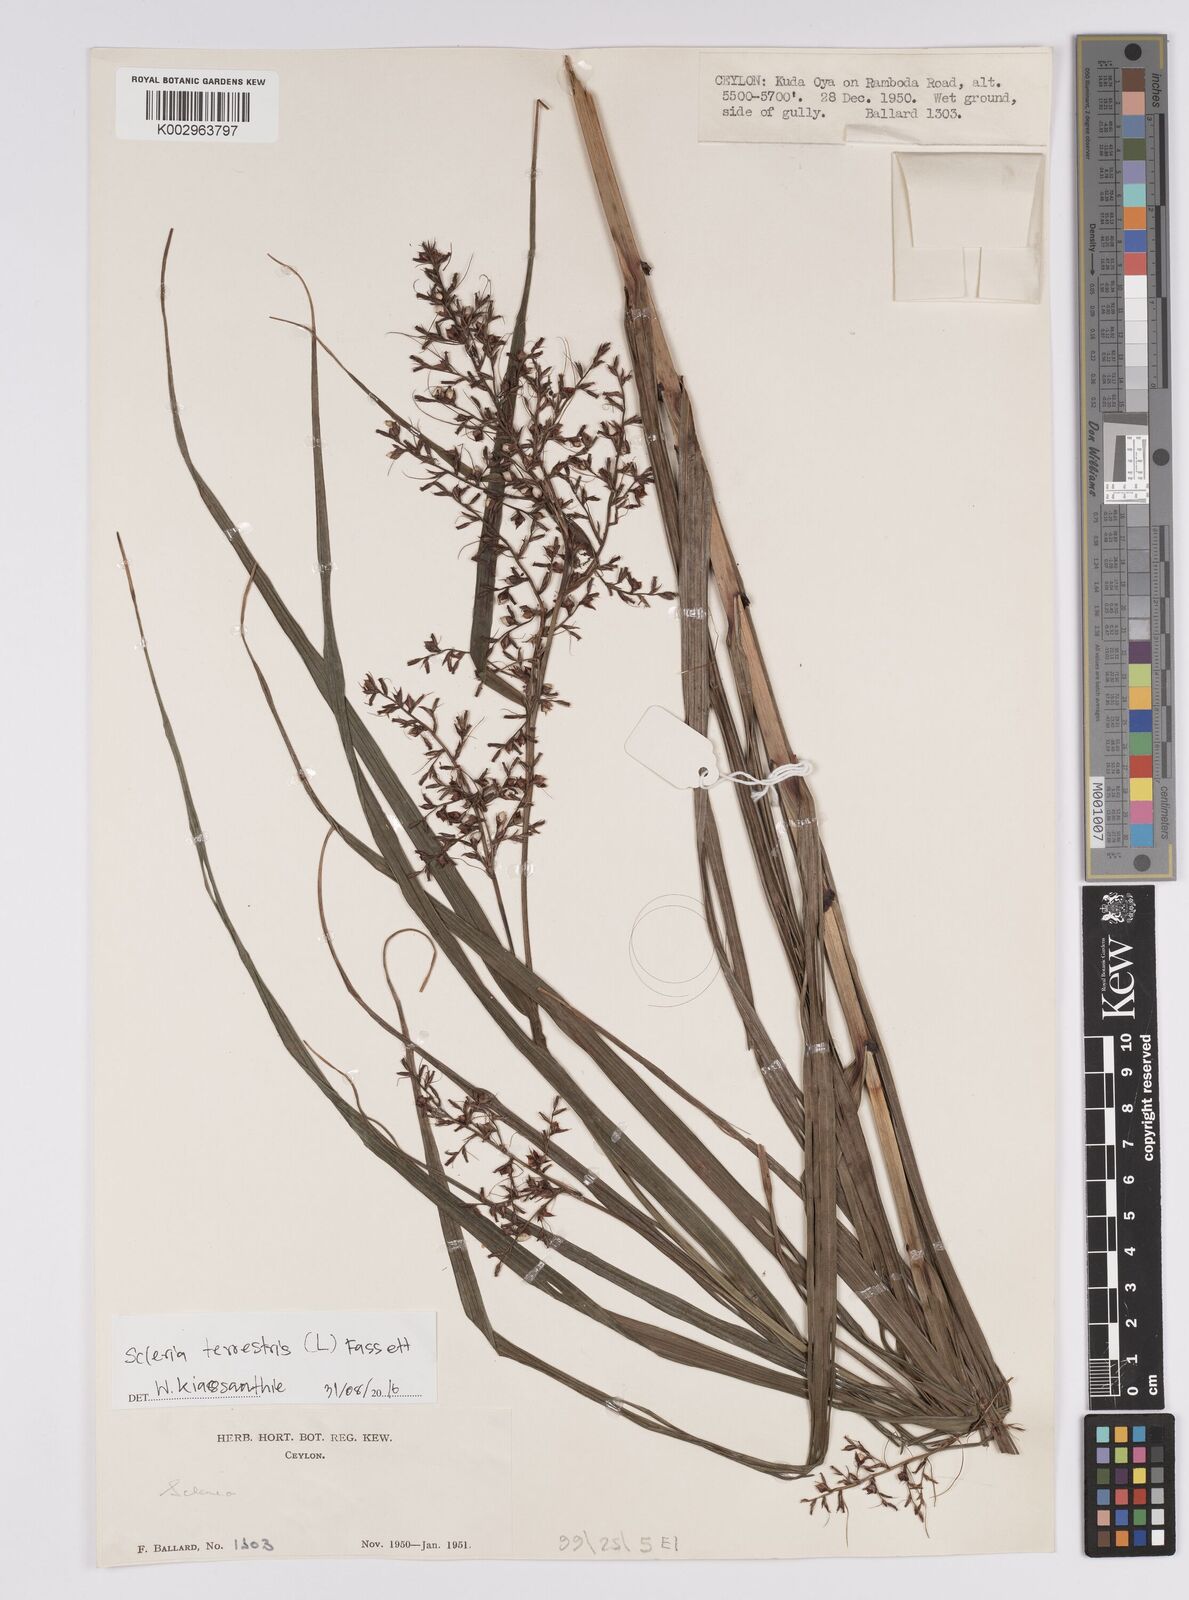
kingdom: Plantae
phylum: Tracheophyta
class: Liliopsida
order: Poales
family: Cyperaceae
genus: Scleria
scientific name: Scleria terrestris
